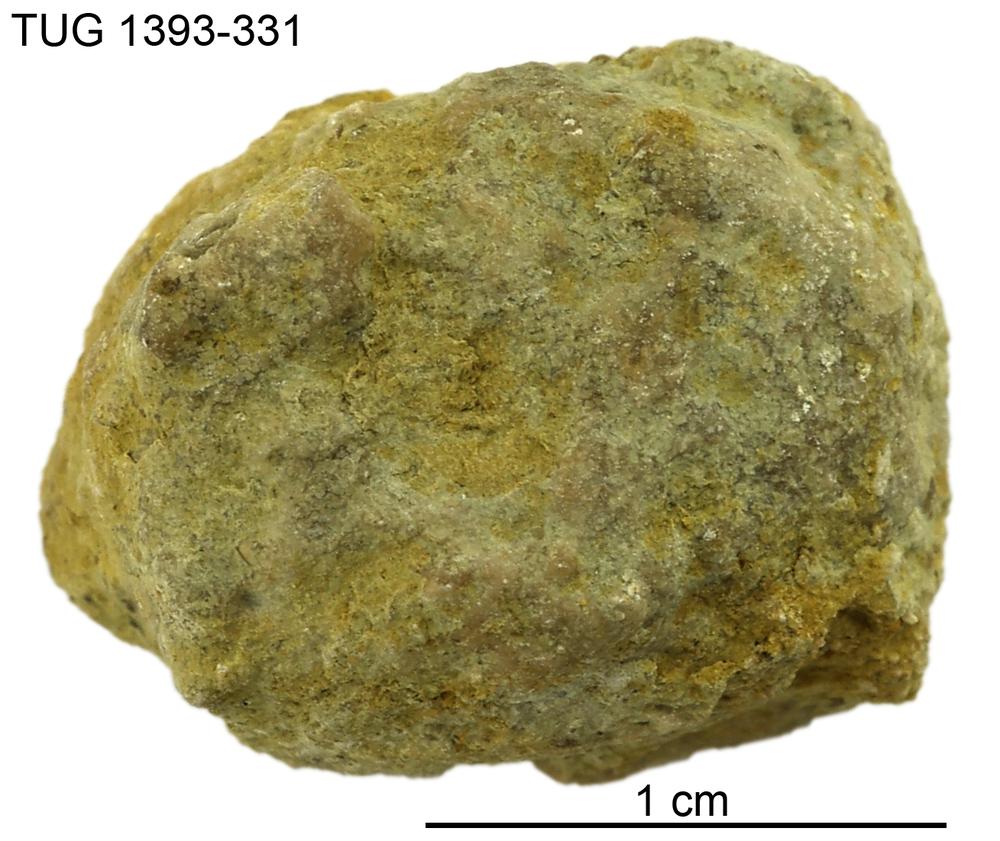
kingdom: Animalia
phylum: Bryozoa
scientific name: Bryozoa
